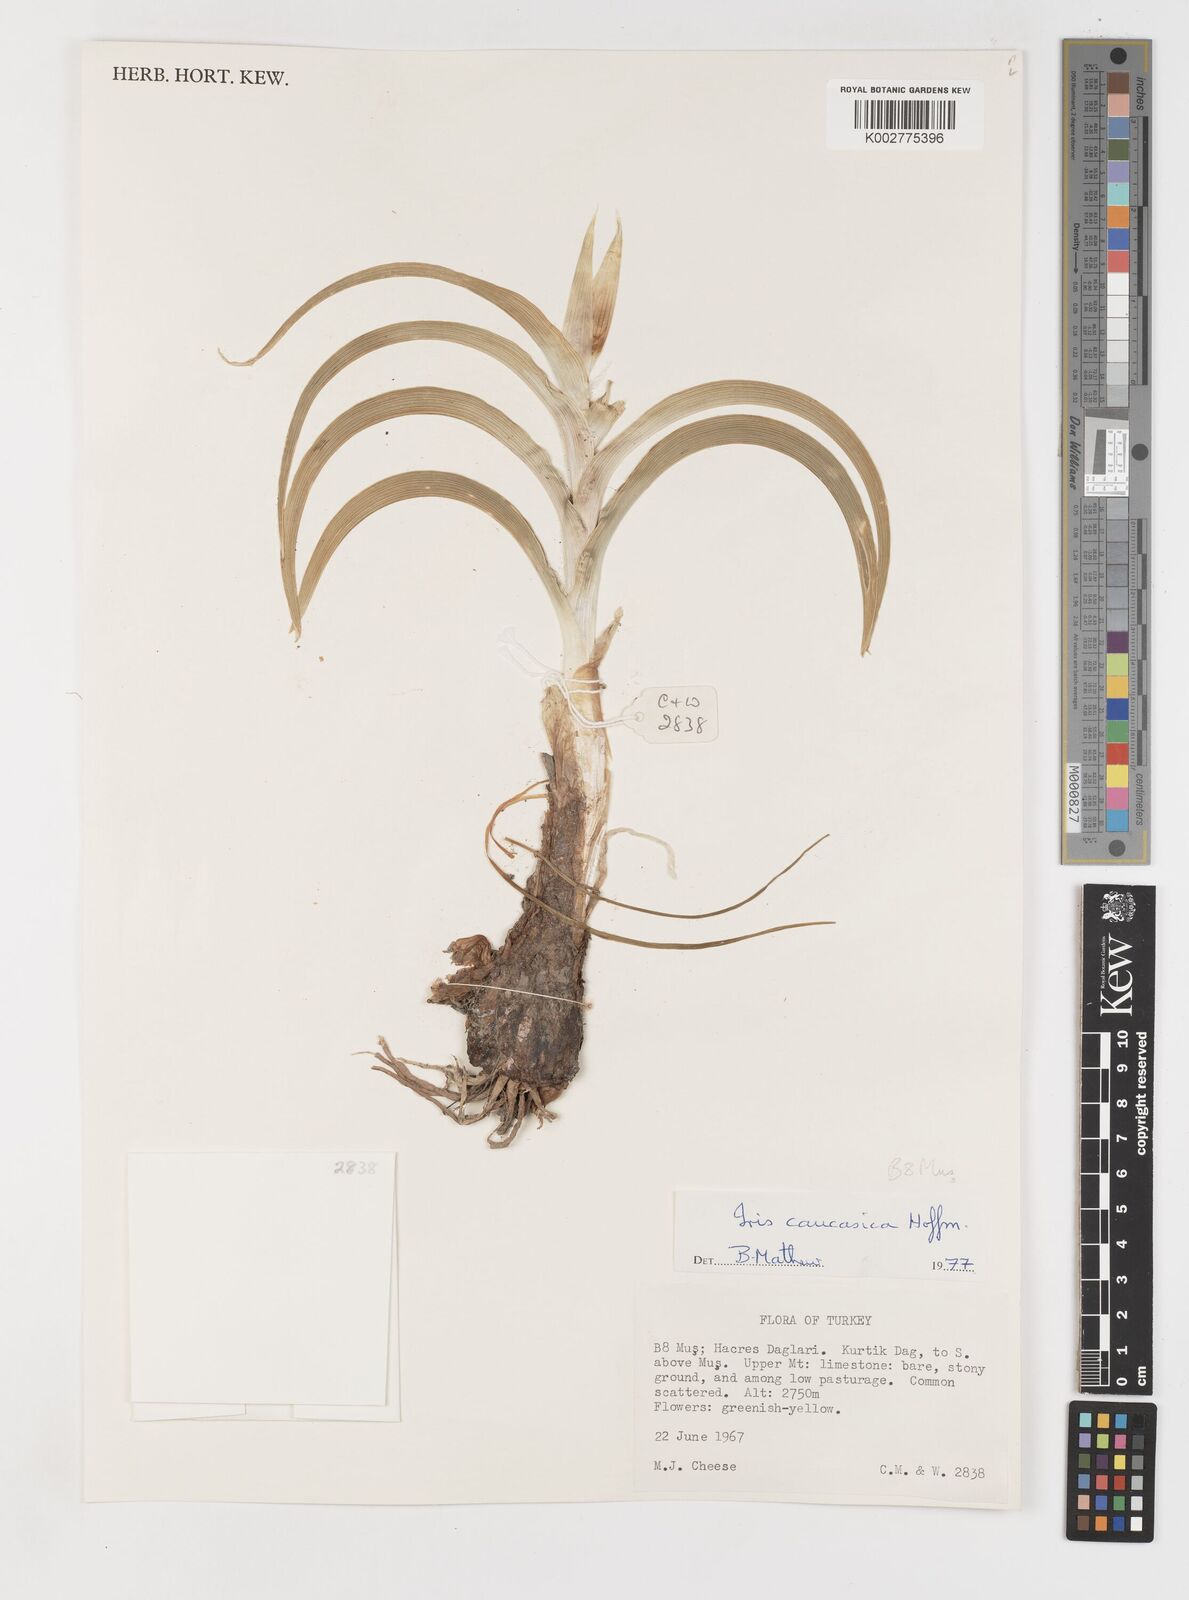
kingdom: Plantae
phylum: Tracheophyta
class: Liliopsida
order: Asparagales
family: Iridaceae
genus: Iris
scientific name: Iris caucasica
